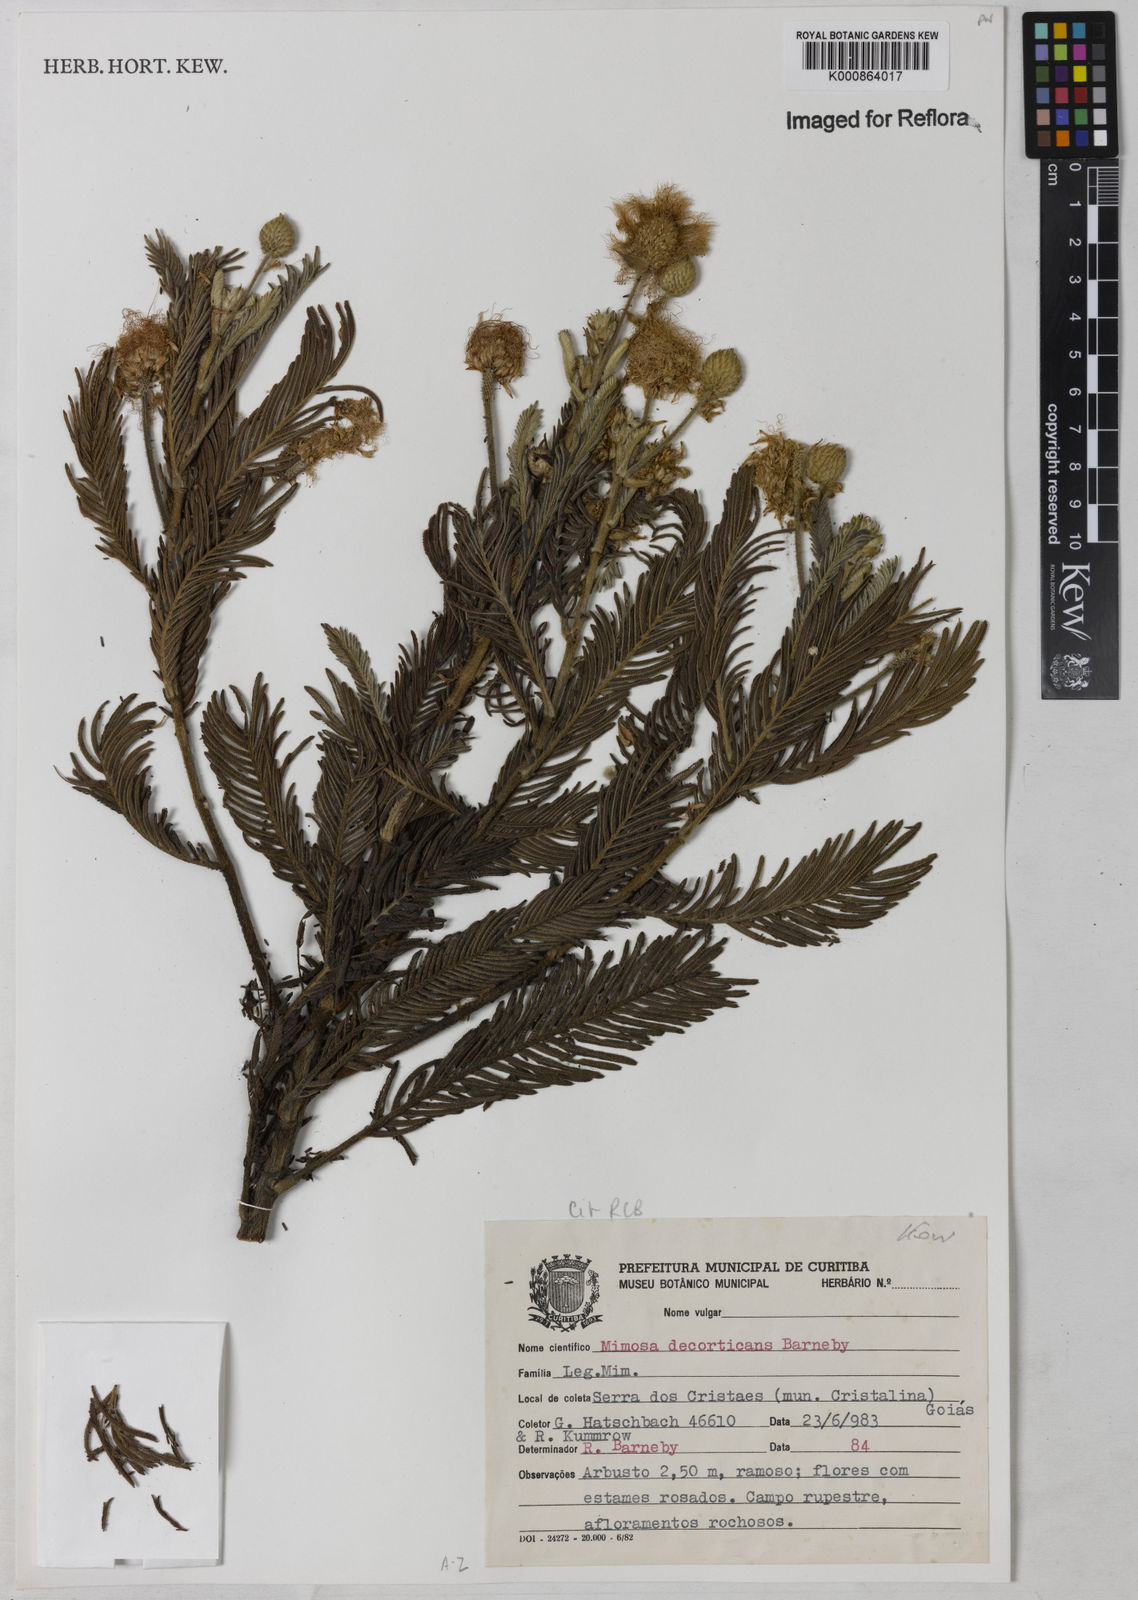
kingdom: Plantae
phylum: Tracheophyta
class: Magnoliopsida
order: Fabales
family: Fabaceae
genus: Mimosa
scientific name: Mimosa decorticans
